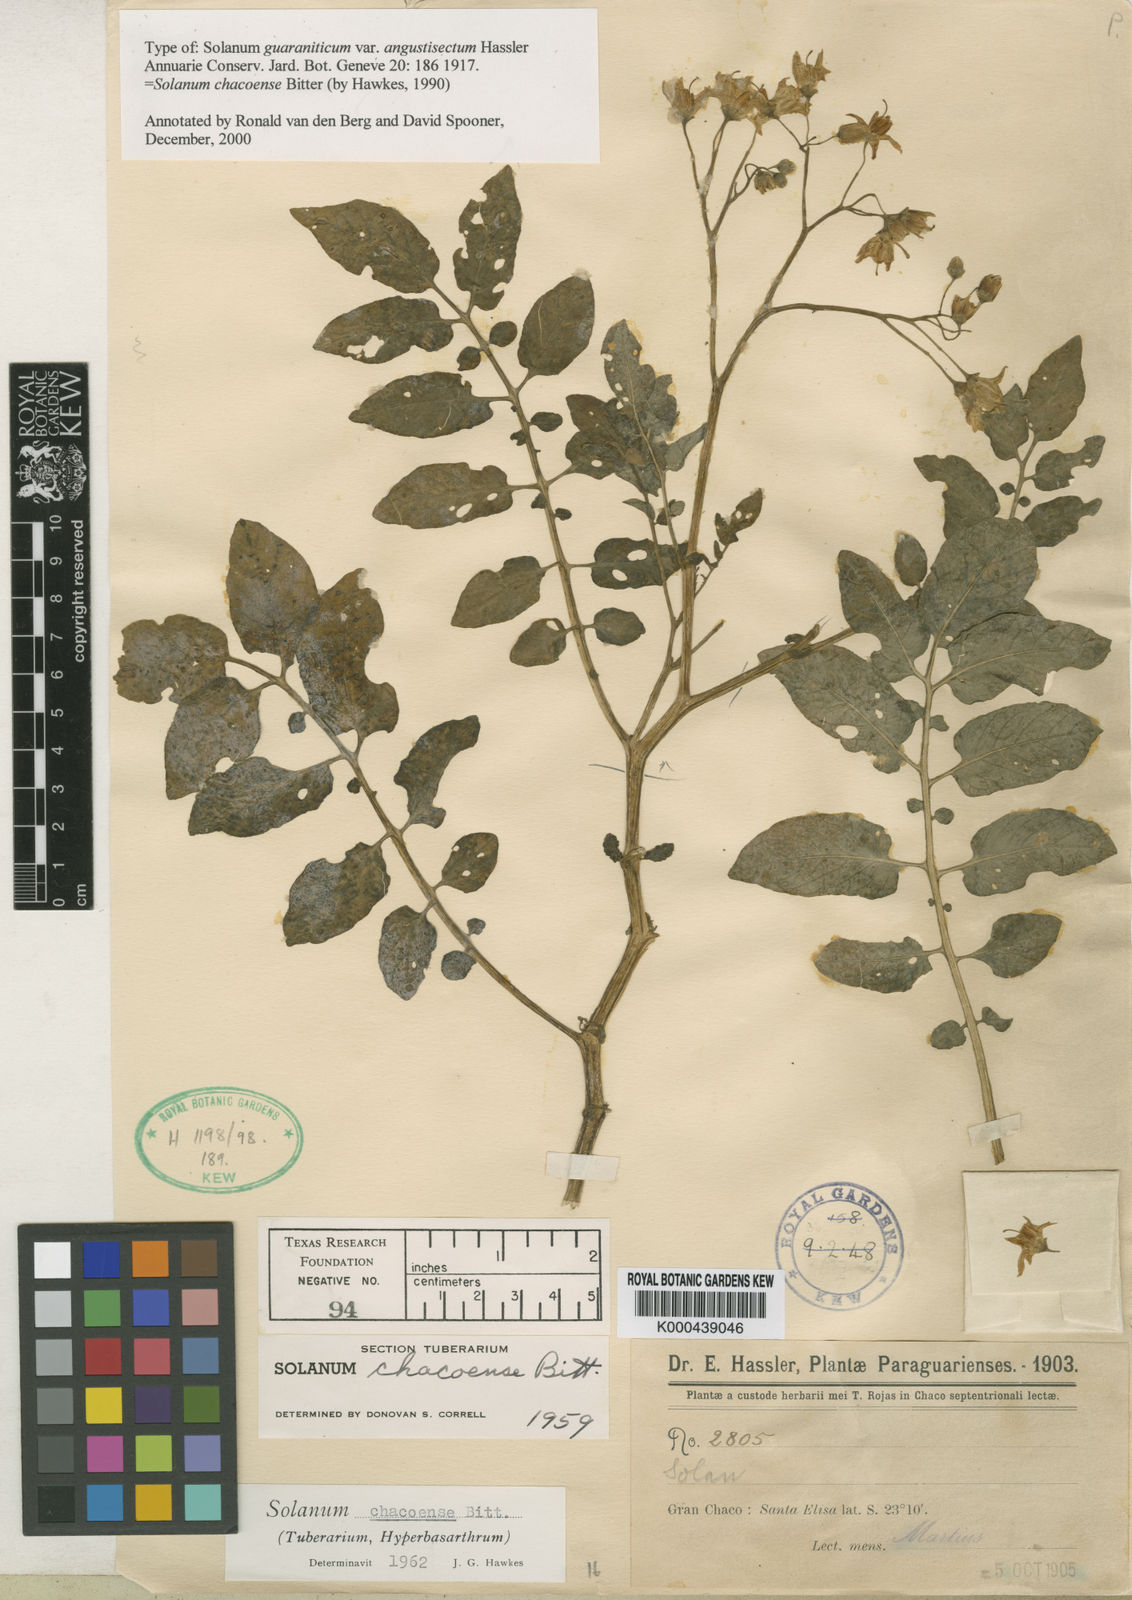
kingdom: Plantae
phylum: Tracheophyta
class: Magnoliopsida
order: Solanales
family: Solanaceae
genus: Solanum
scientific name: Solanum chacoense
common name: Chaco potato
